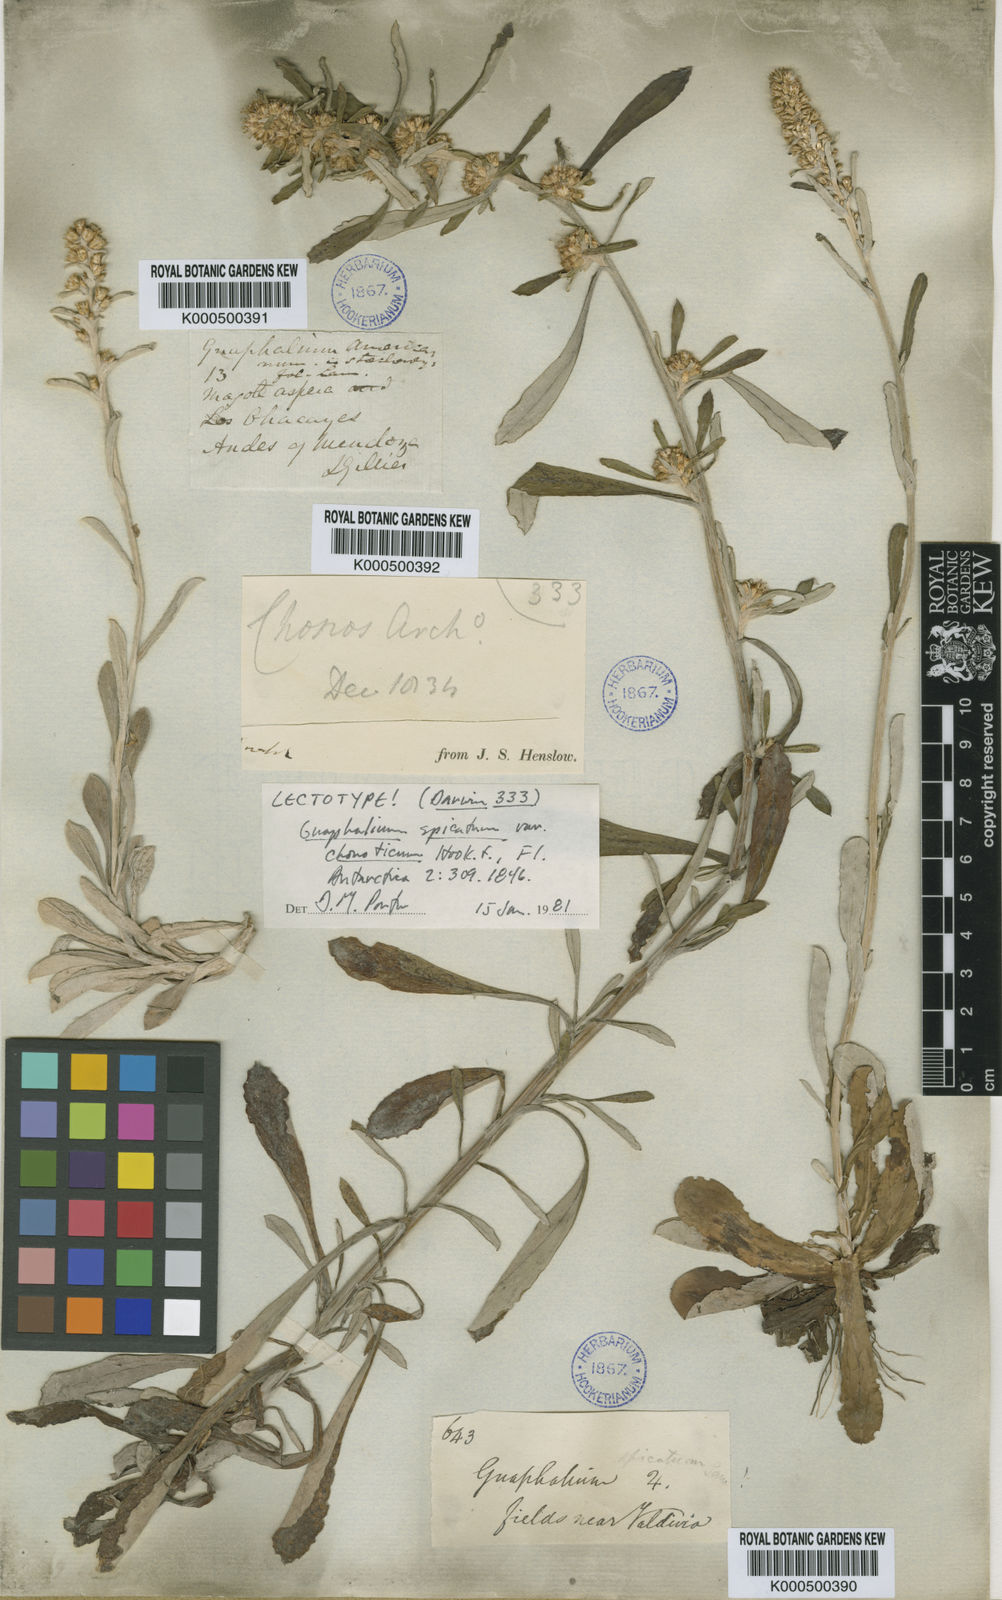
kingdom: Plantae
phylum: Tracheophyta
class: Magnoliopsida
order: Asterales
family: Asteraceae
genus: Pterocaulon
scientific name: Pterocaulon virgatum
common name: Wand blackroot
